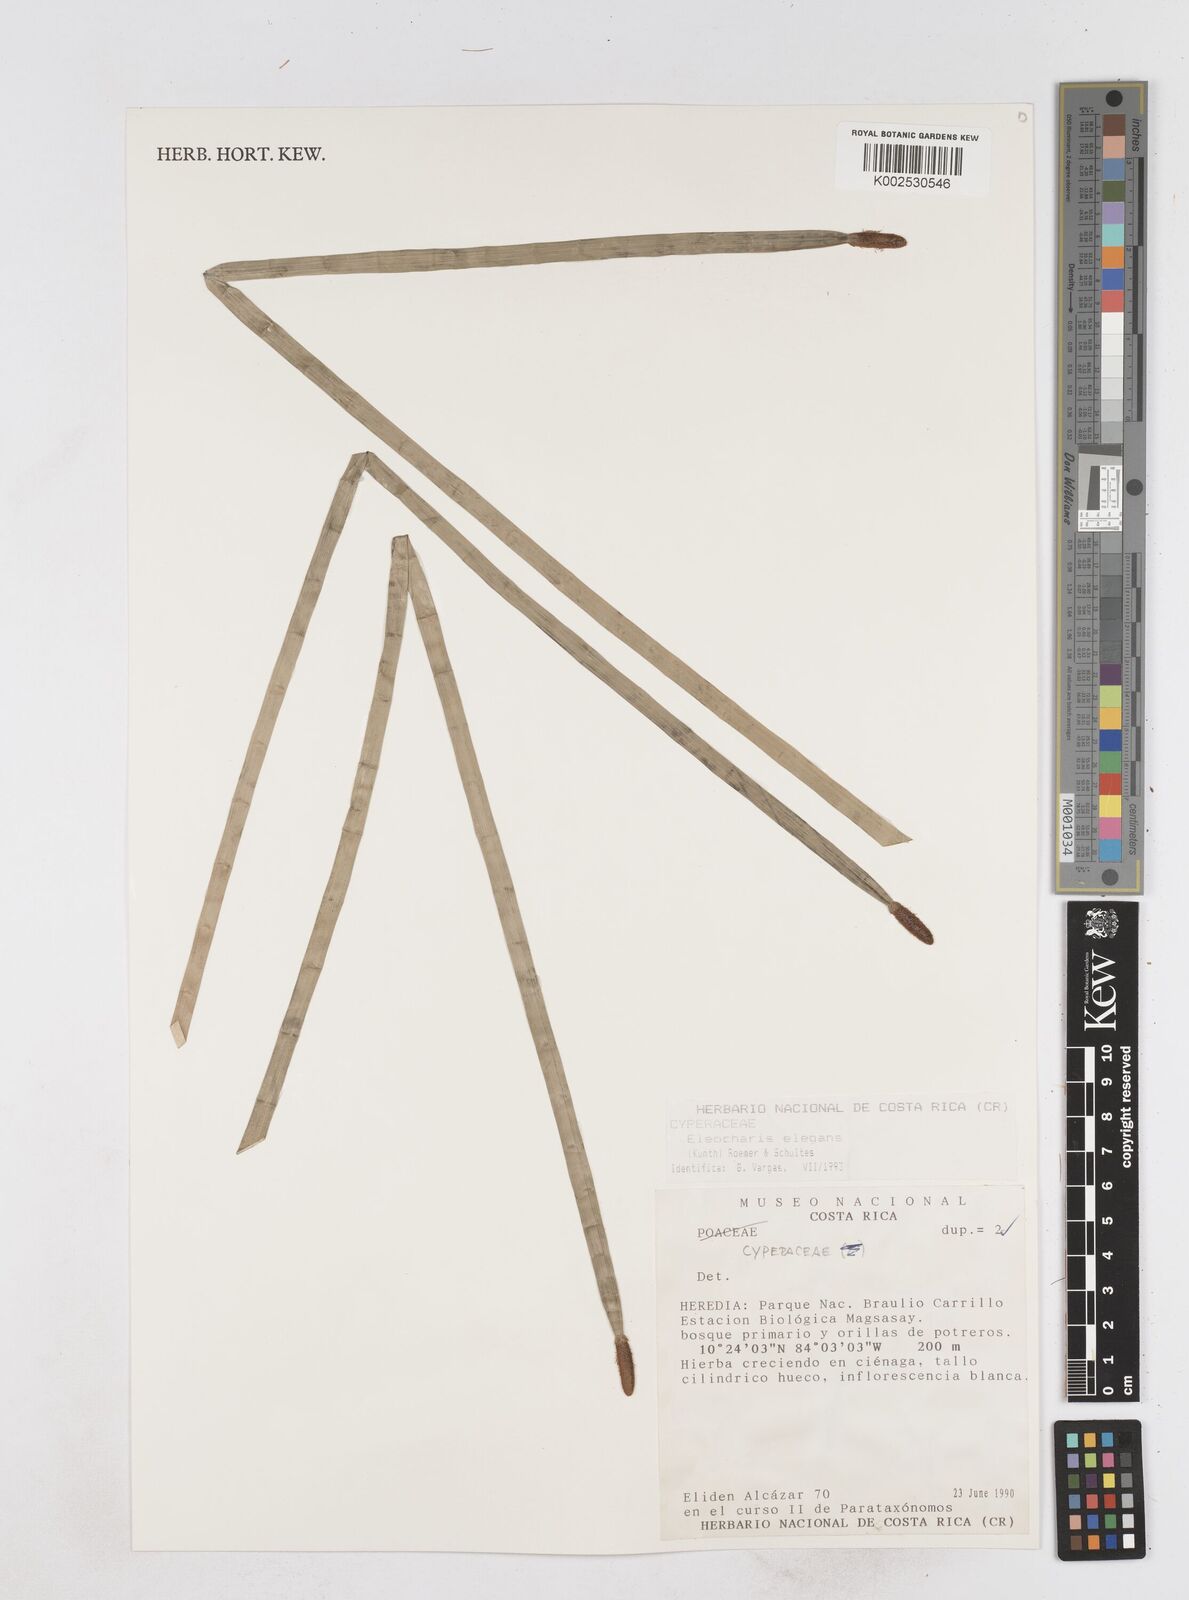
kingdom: Plantae
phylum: Tracheophyta
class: Liliopsida
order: Poales
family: Cyperaceae
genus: Eleocharis
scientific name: Eleocharis elegans
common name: Elegant spike-rush
